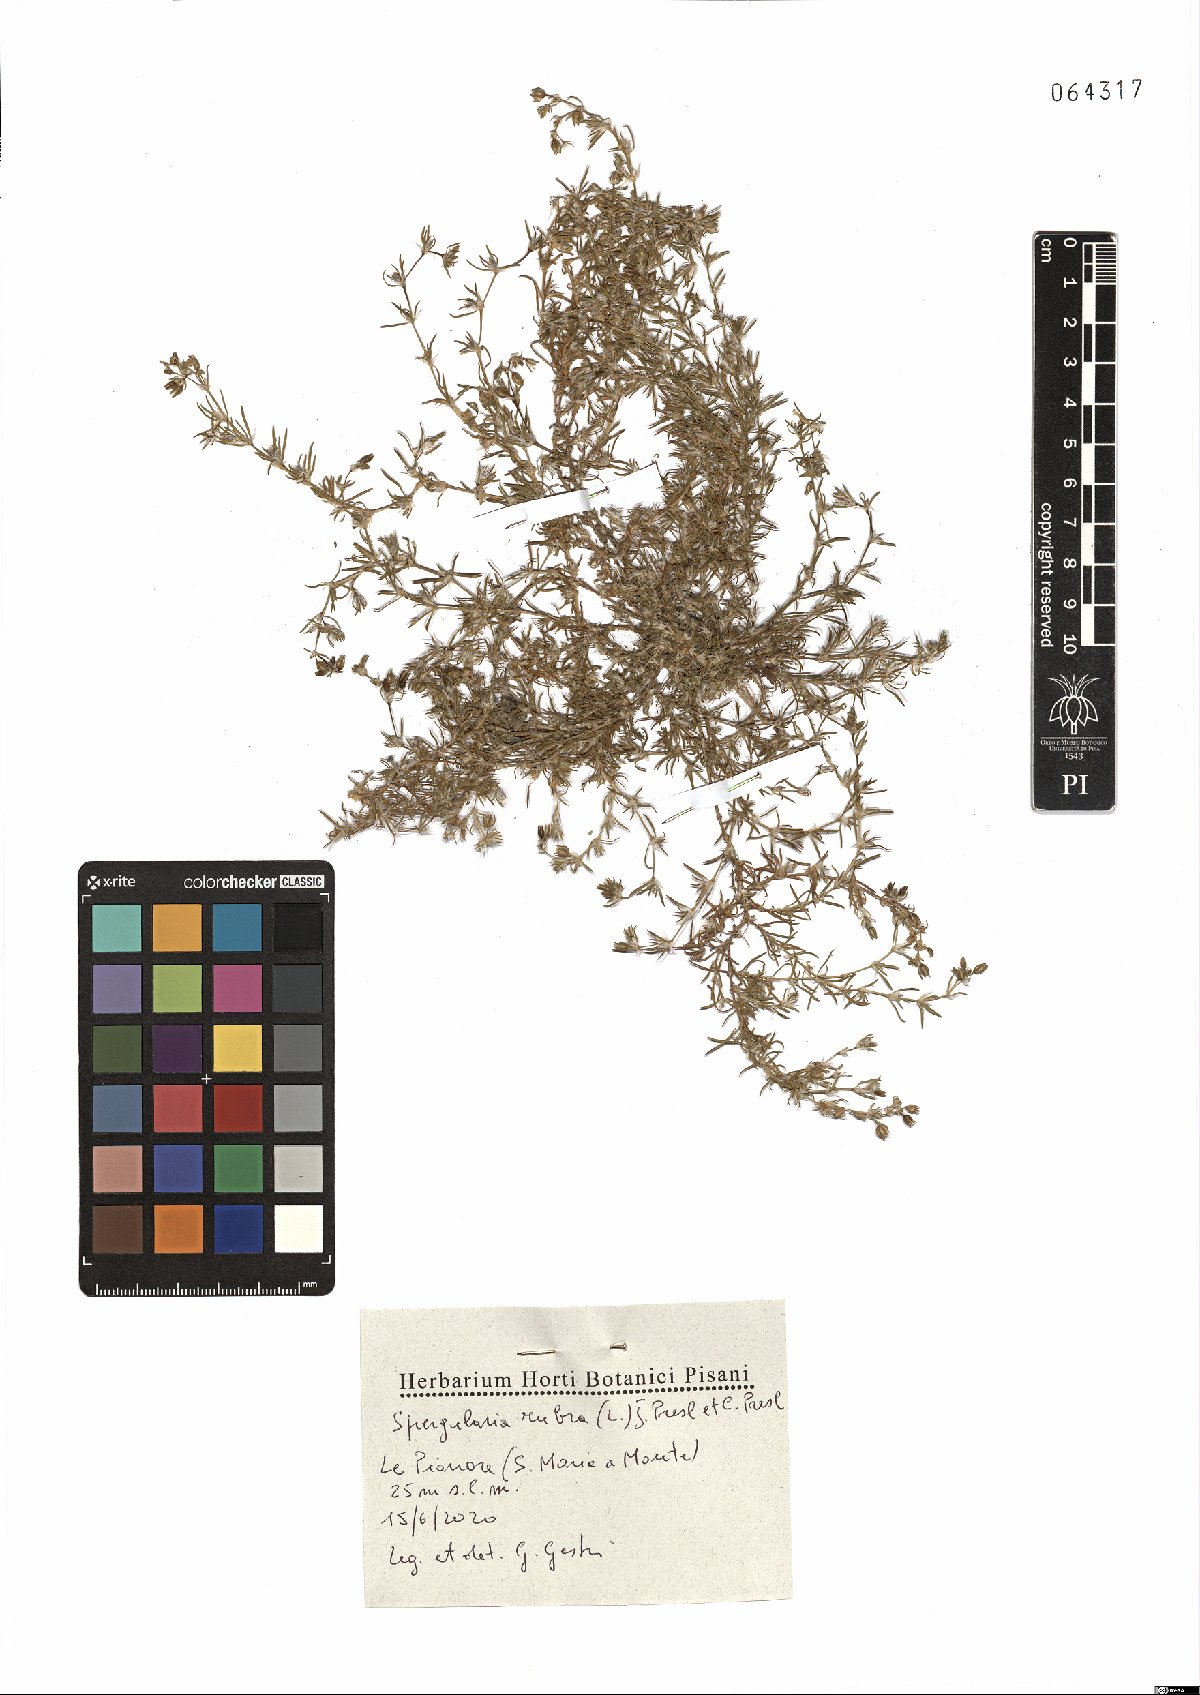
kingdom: Plantae
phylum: Tracheophyta
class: Magnoliopsida
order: Caryophyllales
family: Caryophyllaceae
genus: Spergularia
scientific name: Spergularia rubra
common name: Red sand-spurrey
